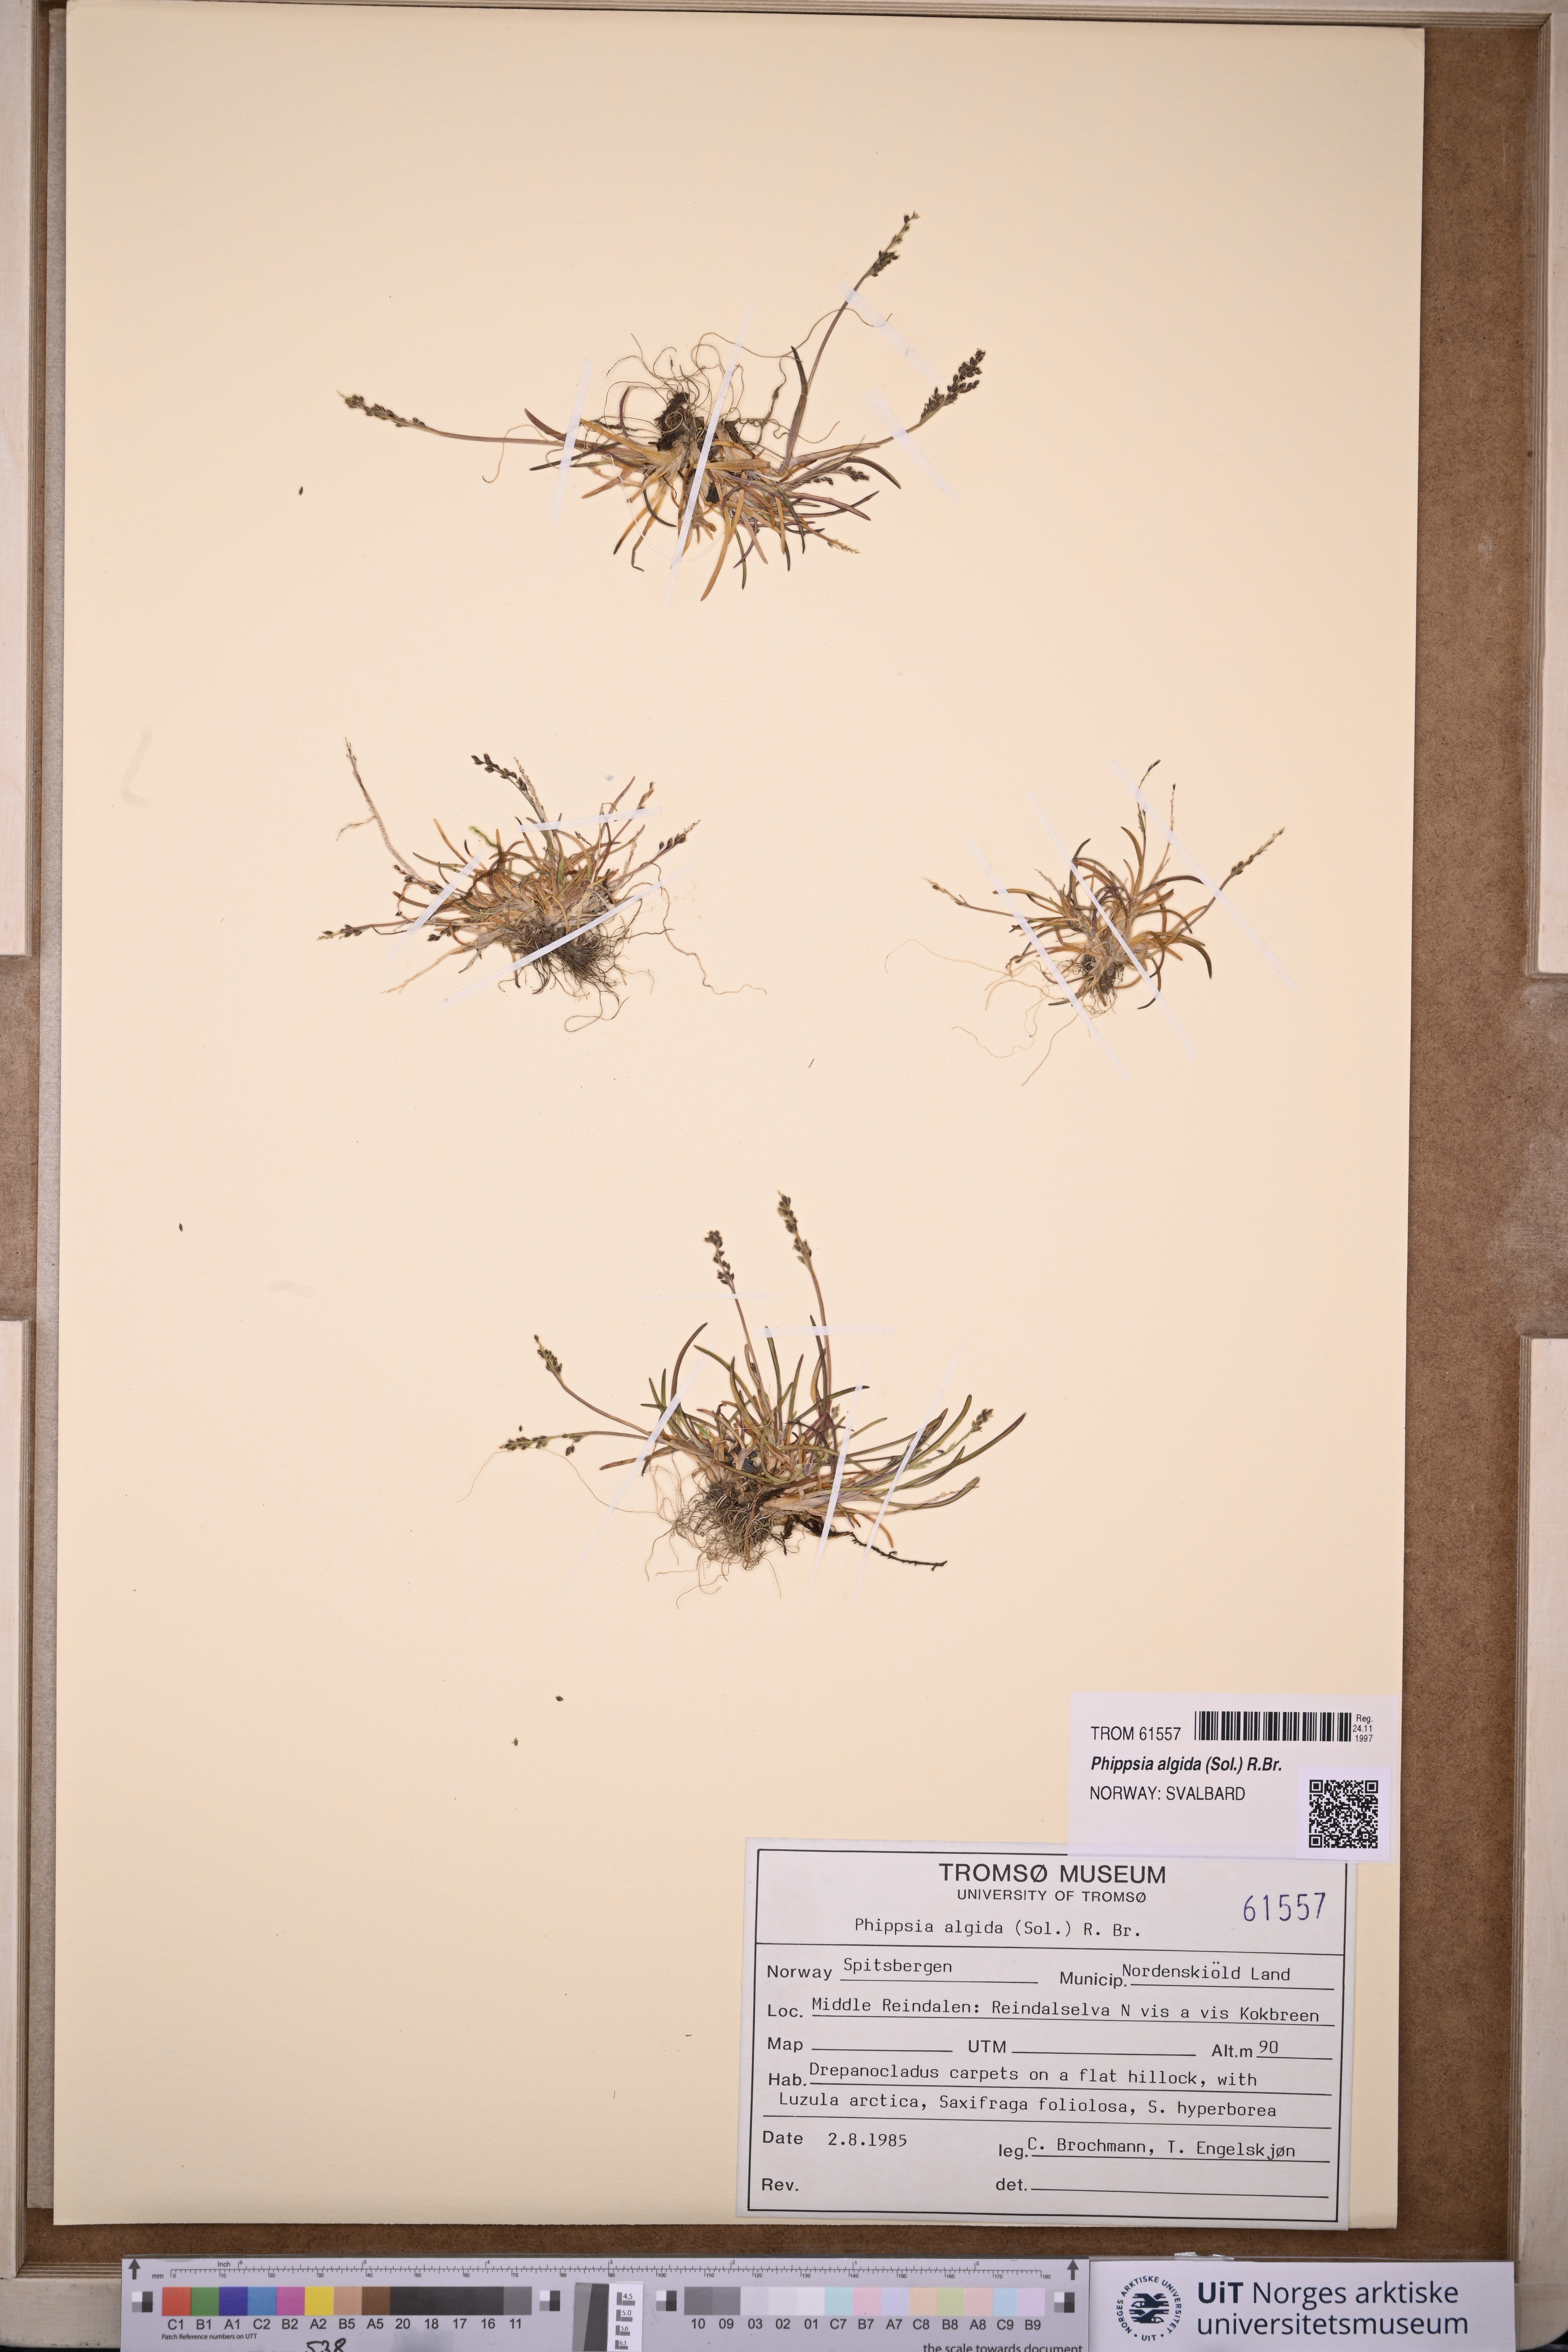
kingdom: Plantae
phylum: Tracheophyta
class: Liliopsida
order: Poales
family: Poaceae
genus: Phippsia
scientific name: Phippsia algida
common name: Ice grass
